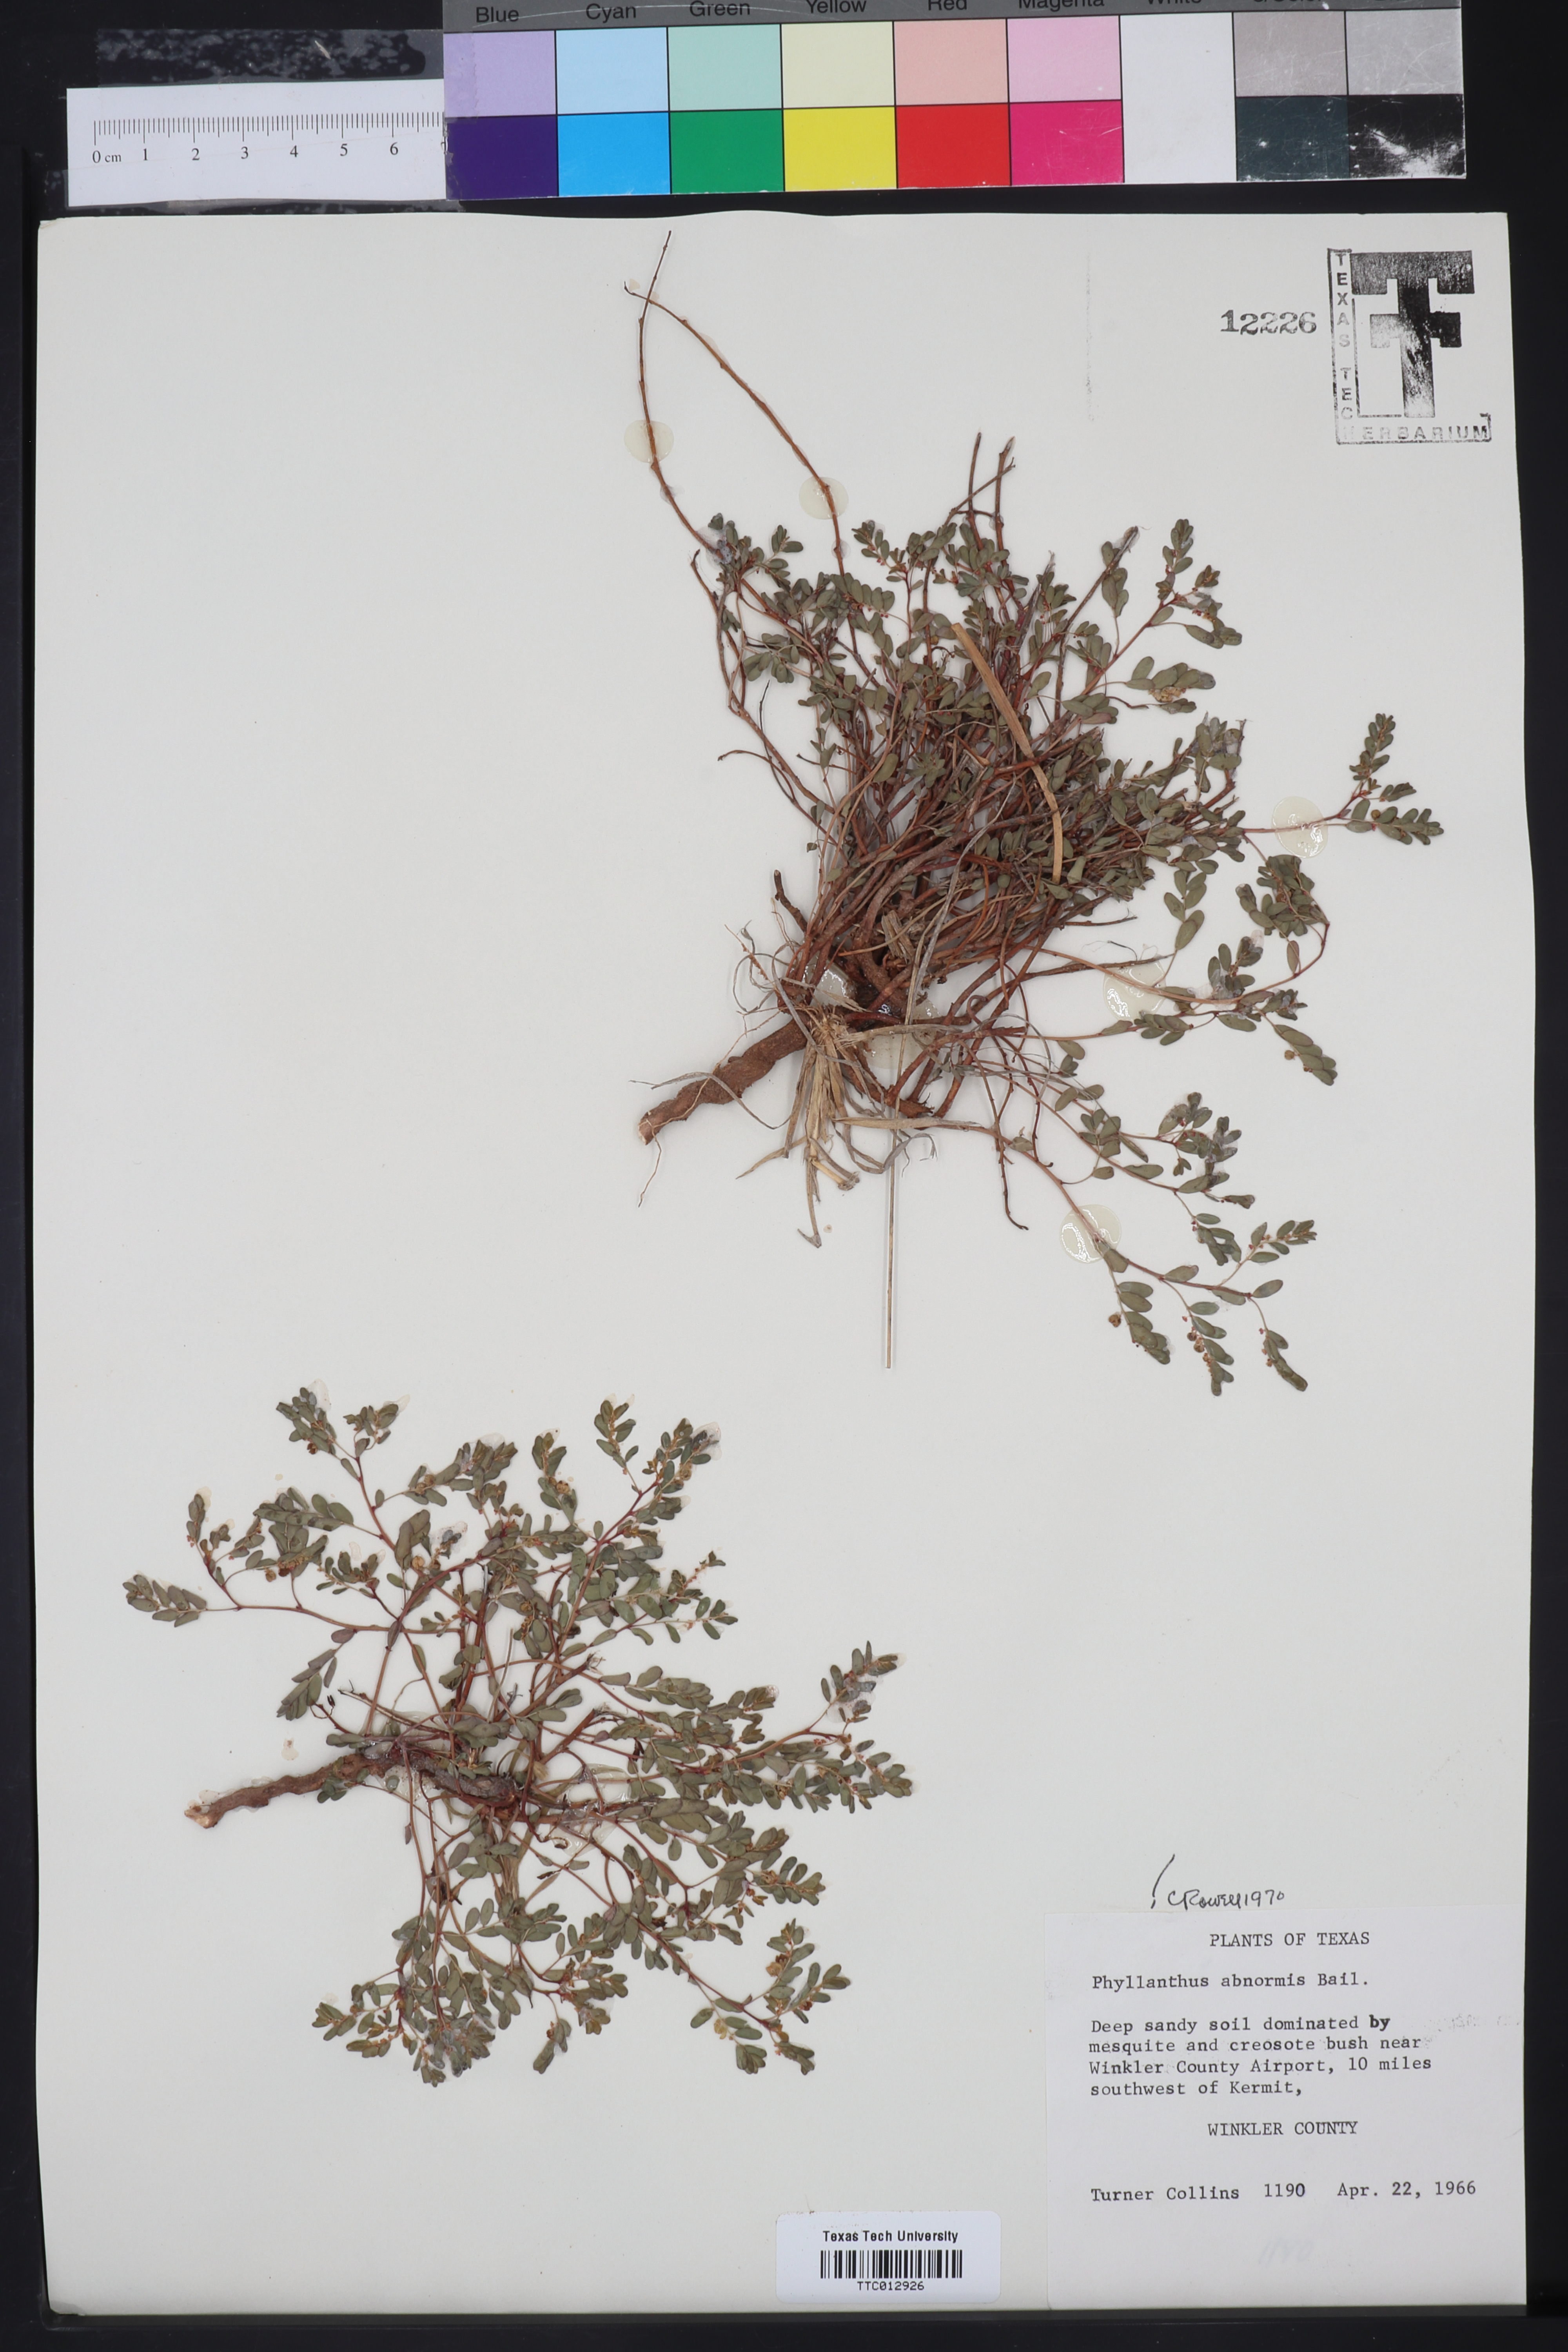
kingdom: Plantae
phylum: Tracheophyta
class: Magnoliopsida
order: Malpighiales
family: Phyllanthaceae
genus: Phyllanthus
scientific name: Phyllanthus abnormis
